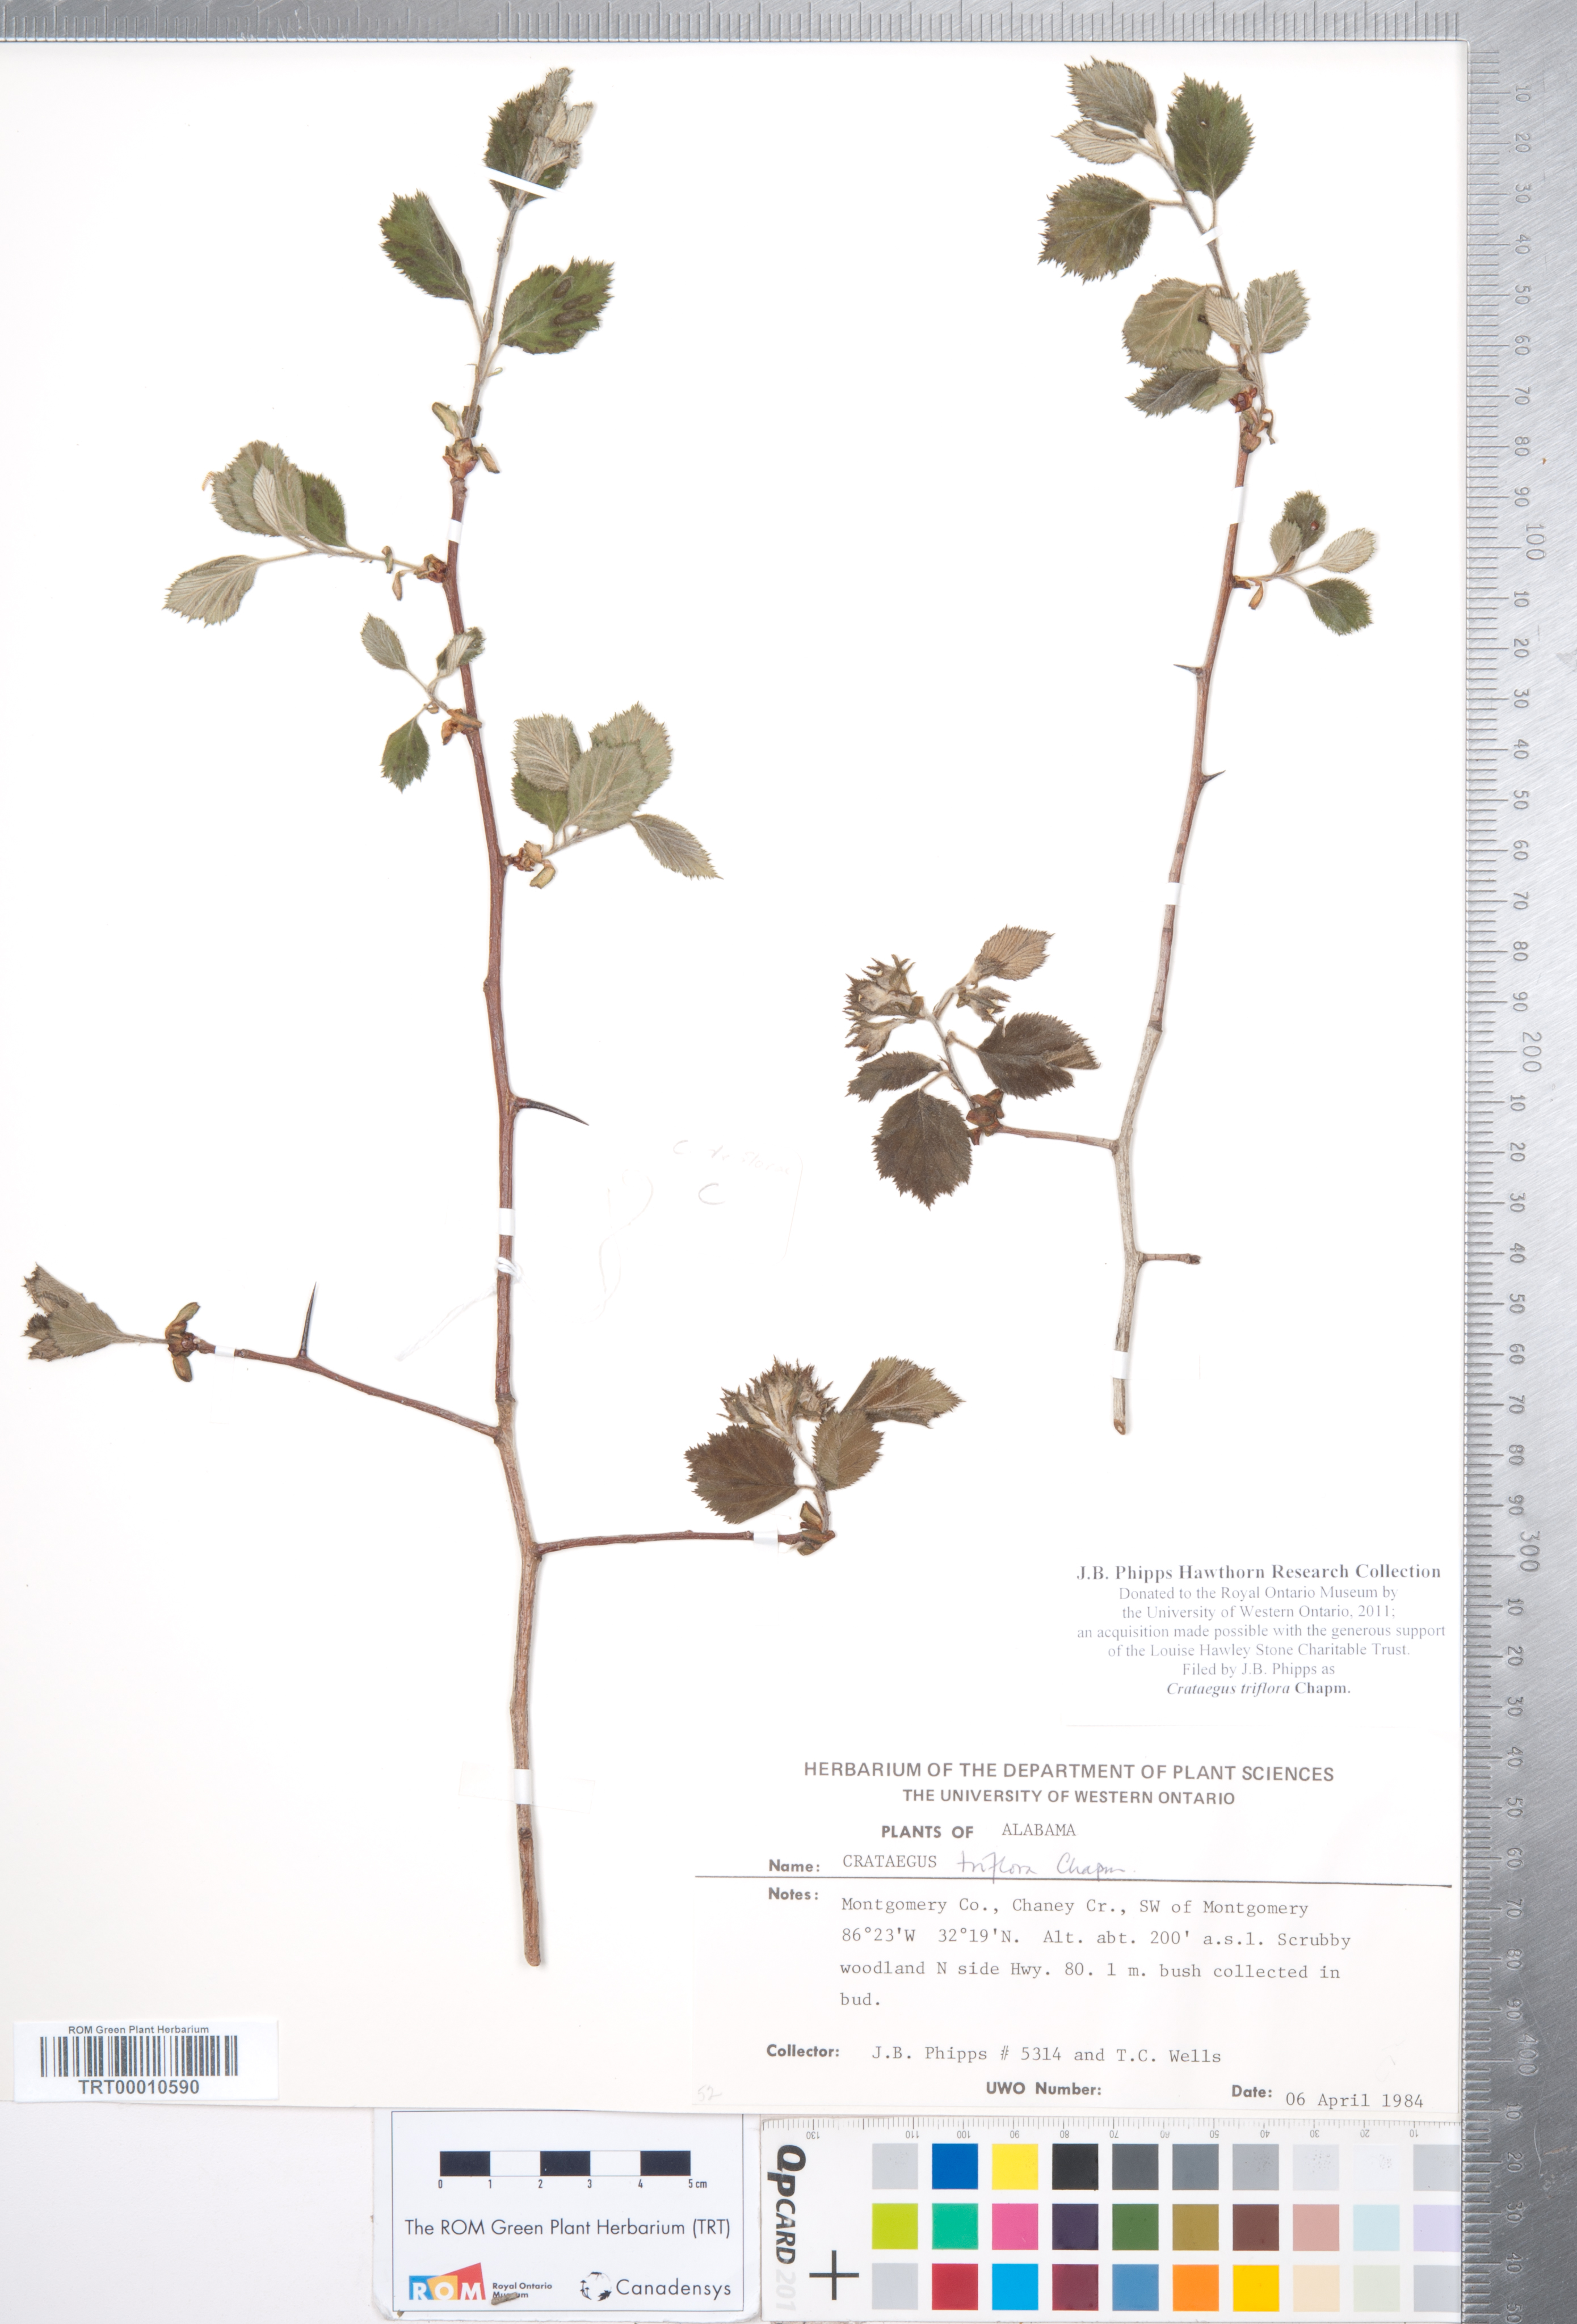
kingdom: Plantae
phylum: Tracheophyta
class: Magnoliopsida
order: Rosales
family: Rosaceae
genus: Crataegus
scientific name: Crataegus triflora
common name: Three-flower hawthorn
